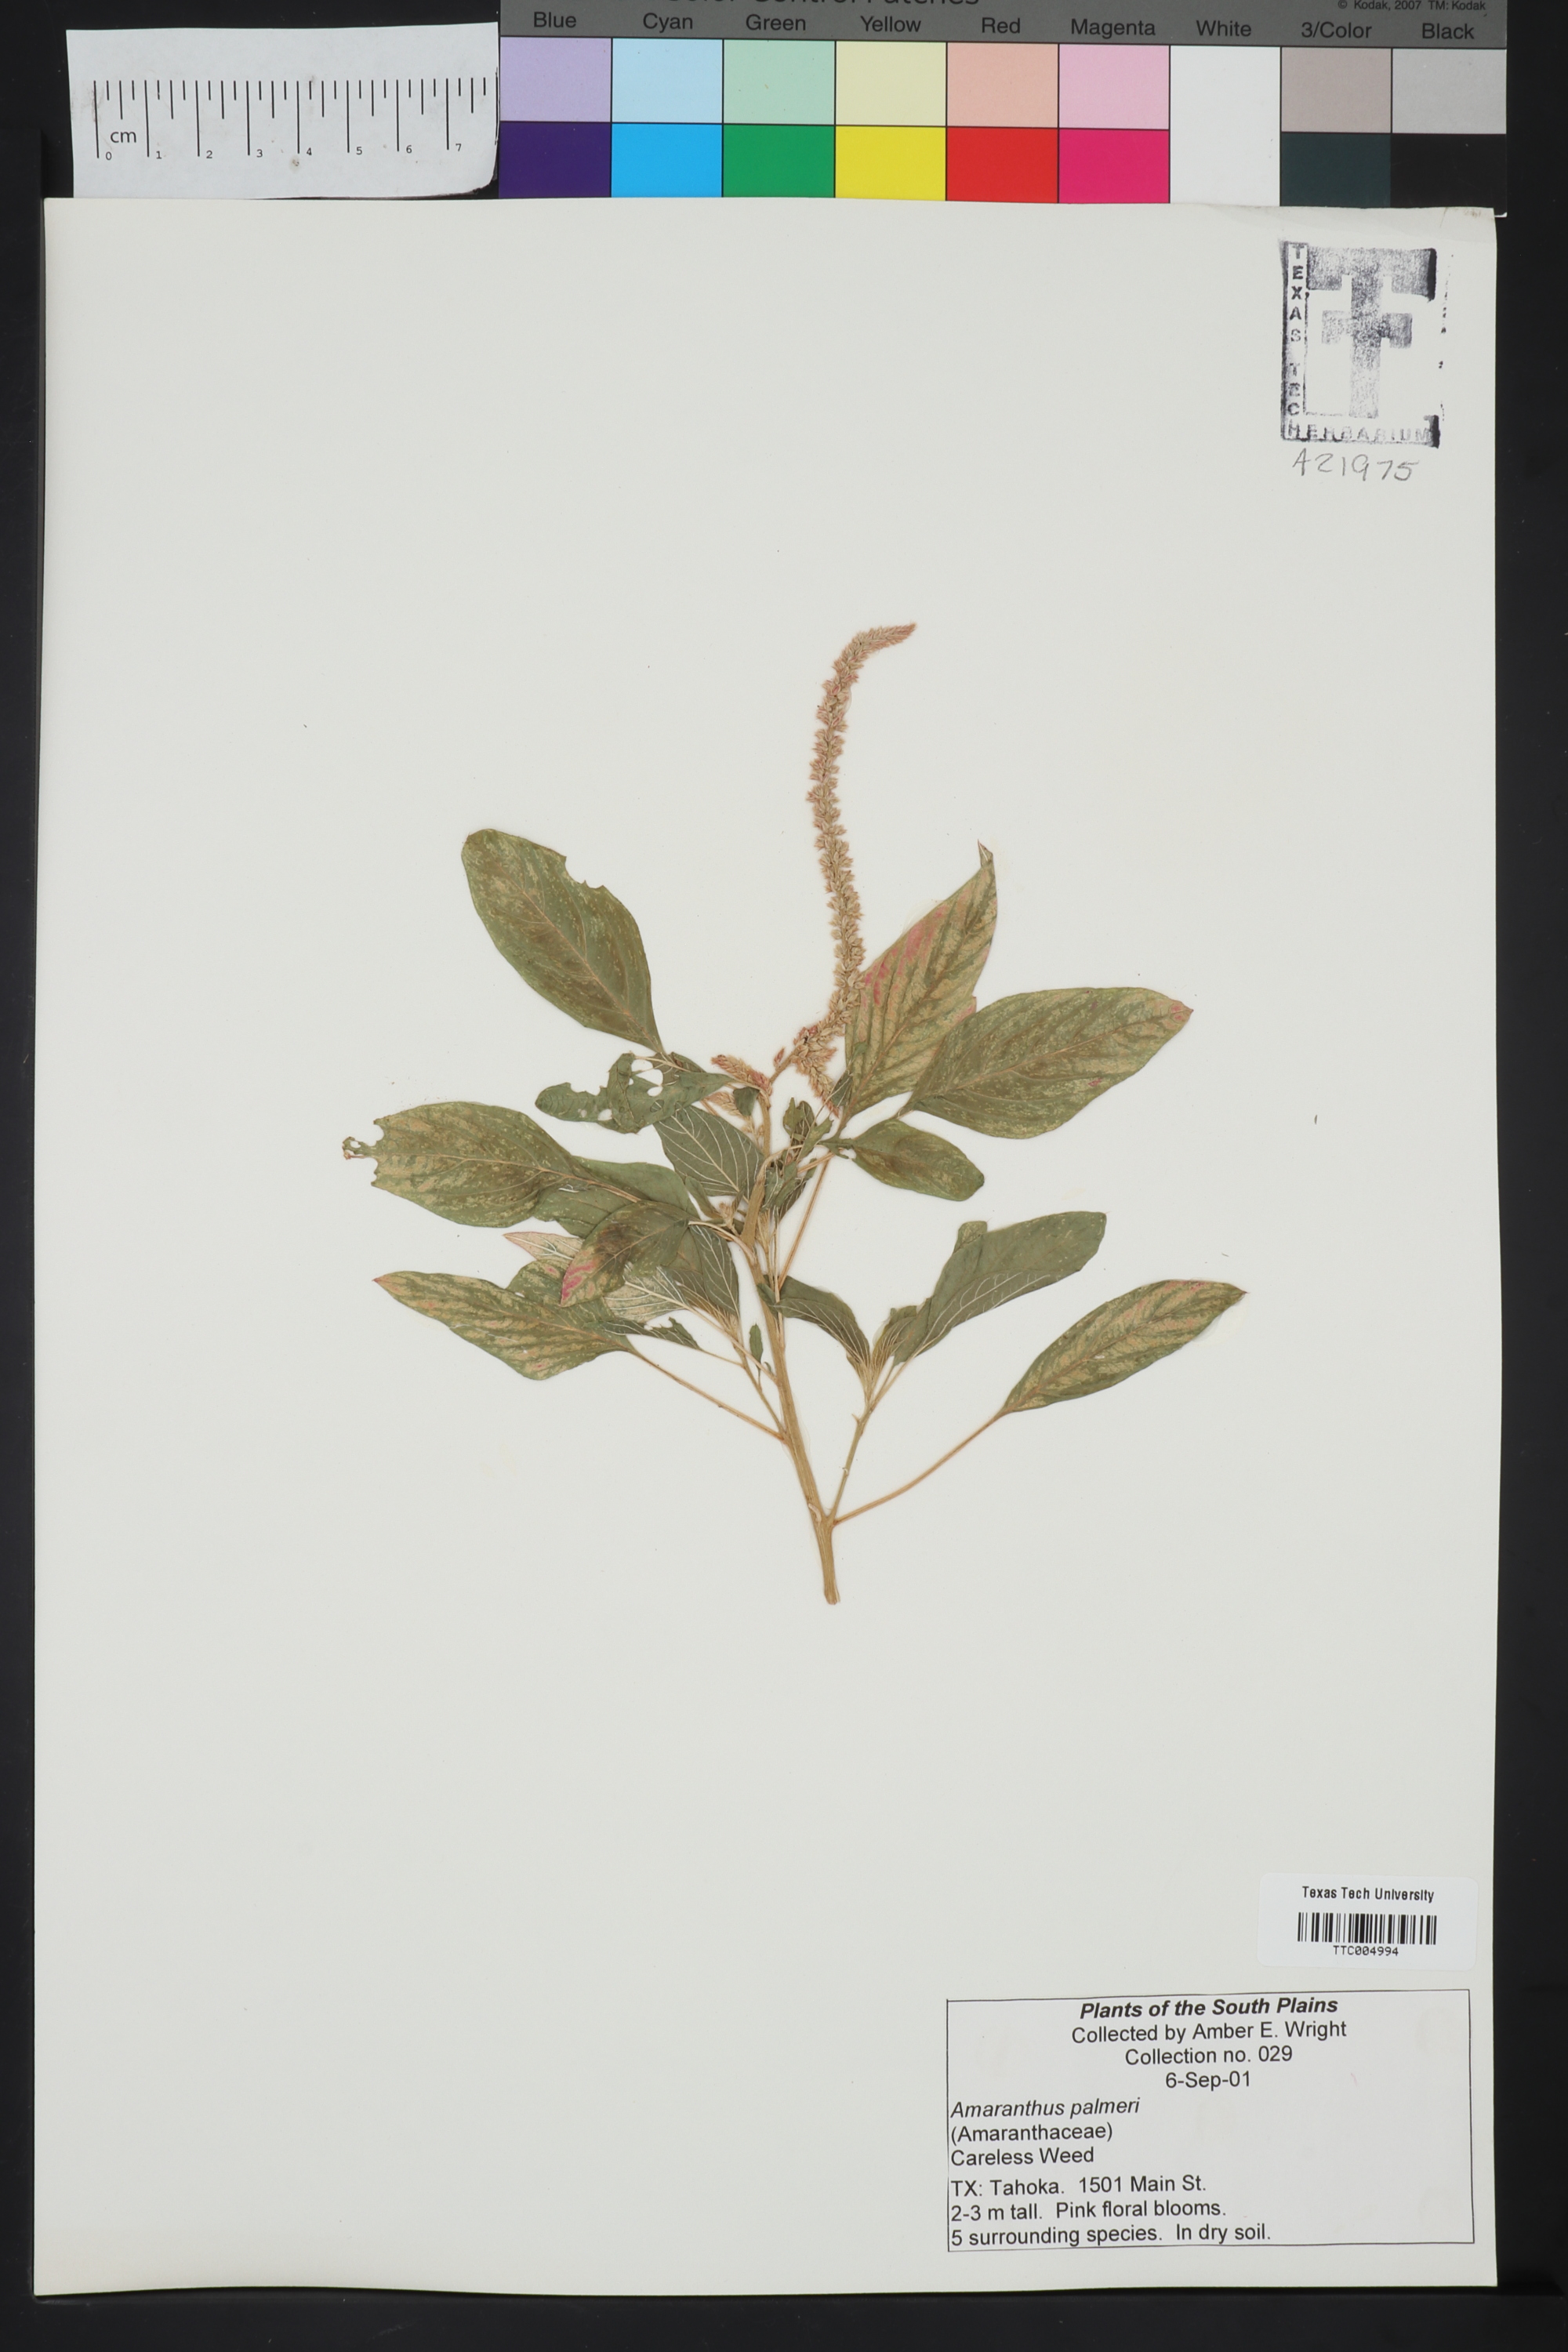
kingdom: Plantae
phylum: Tracheophyta
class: Magnoliopsida
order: Caryophyllales
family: Amaranthaceae
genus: Amaranthus
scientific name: Amaranthus palmeri
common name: Dioecious amaranth
